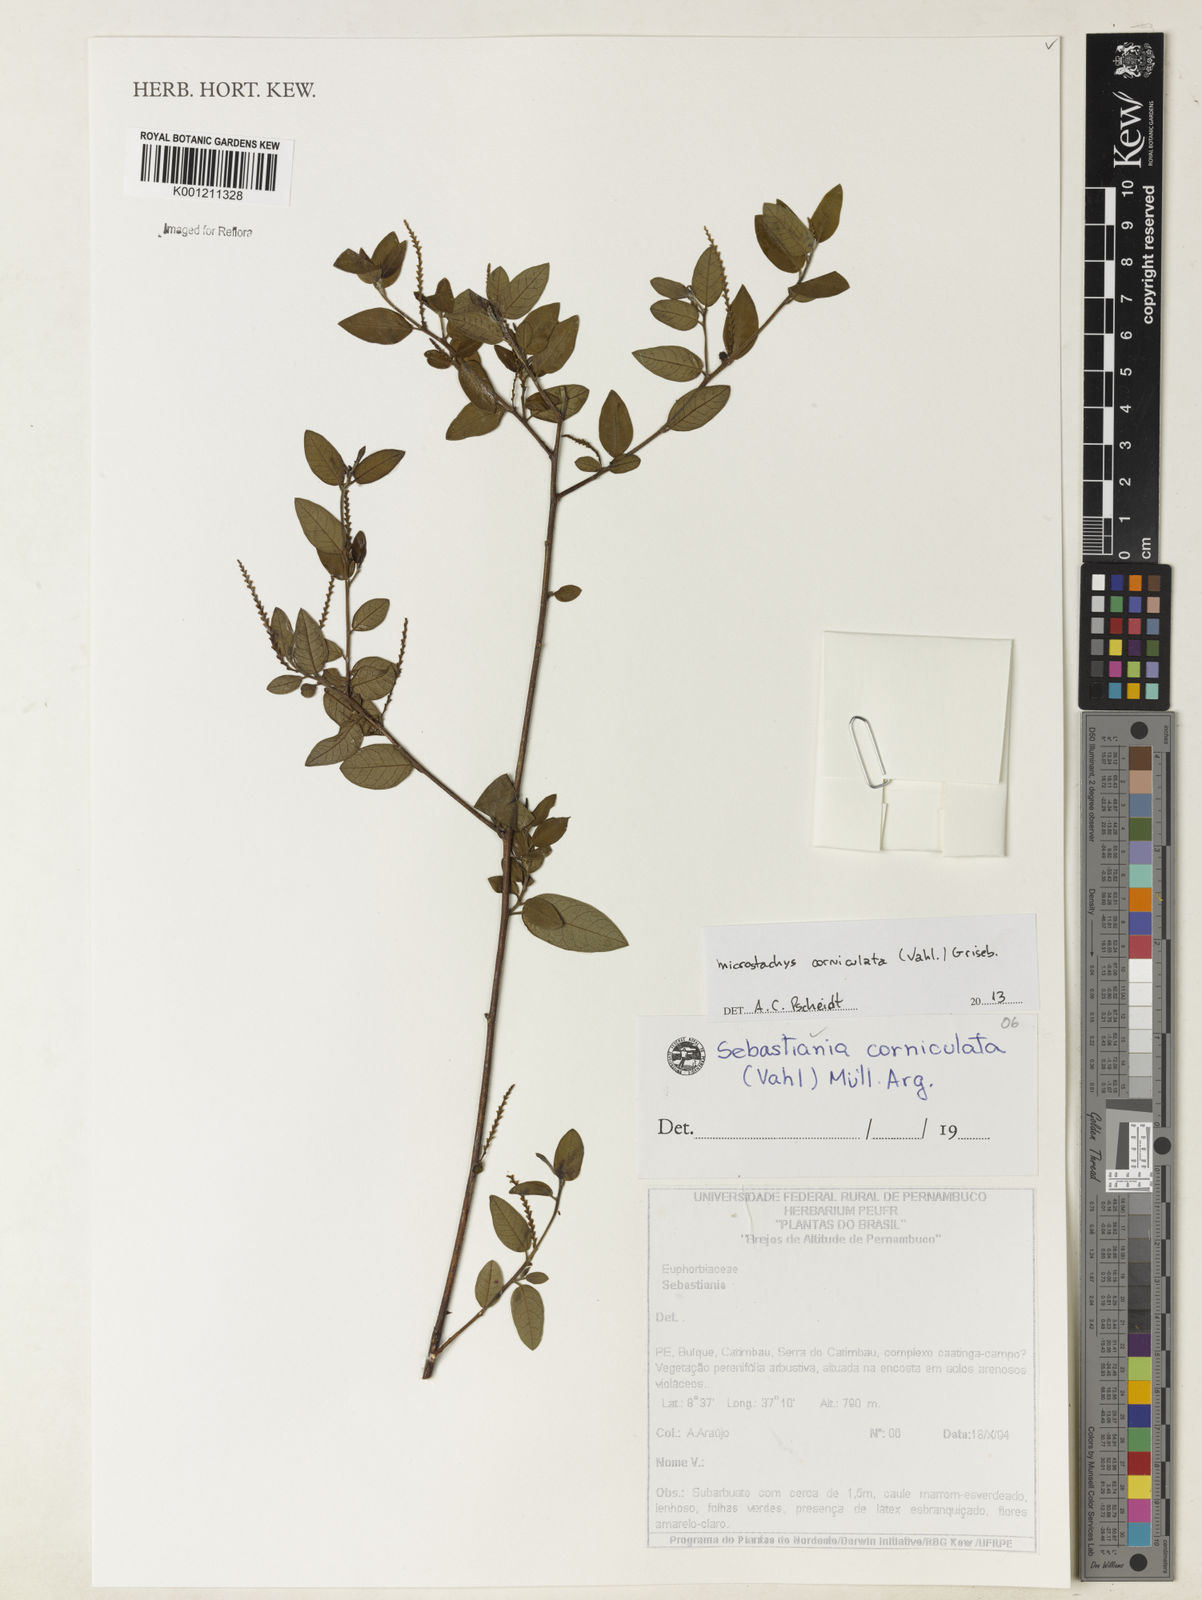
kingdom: Plantae
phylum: Tracheophyta
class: Magnoliopsida
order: Malpighiales
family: Euphorbiaceae
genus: Microstachys
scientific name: Microstachys corniculata
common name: Hato tejas
